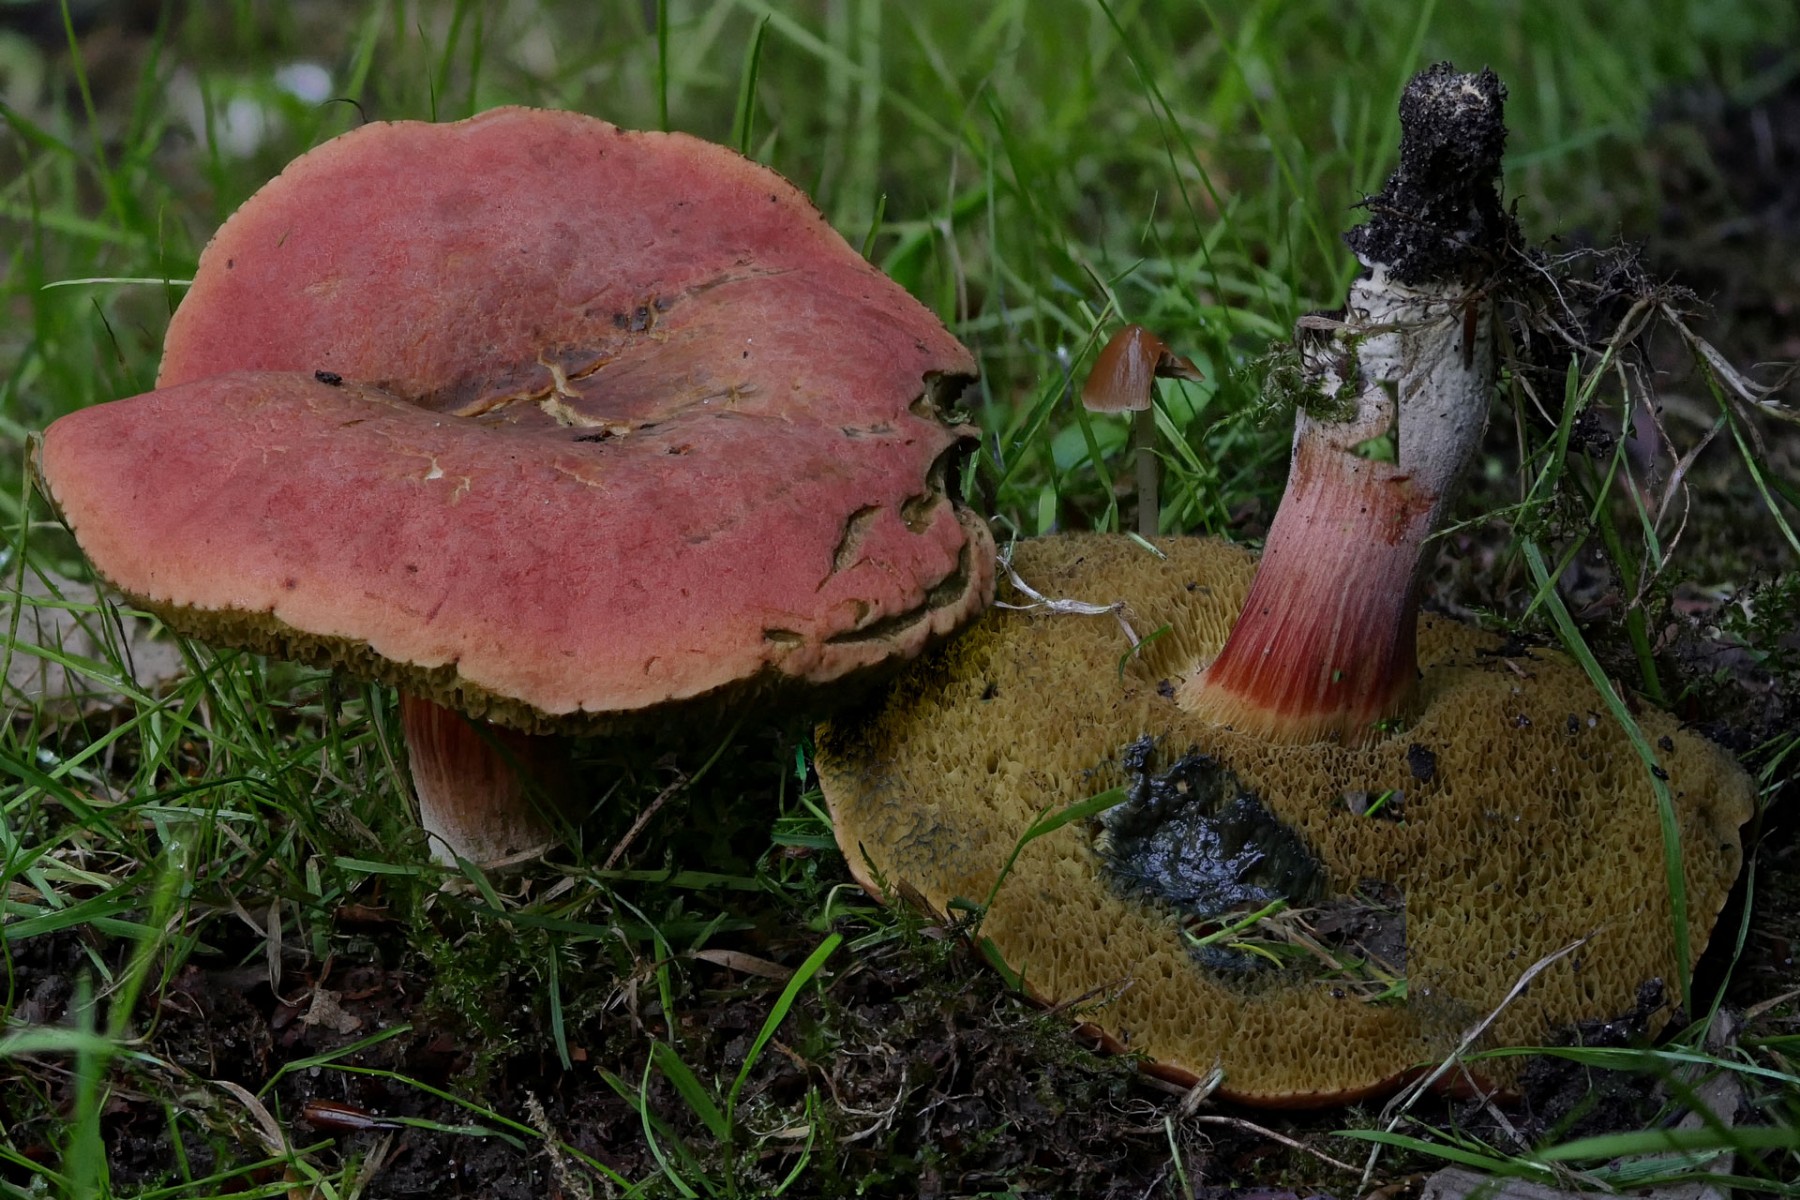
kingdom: Fungi
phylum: Basidiomycota
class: Agaricomycetes
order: Boletales
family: Boletaceae
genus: Hortiboletus
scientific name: Hortiboletus rubellus
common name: blodrød rørhat
